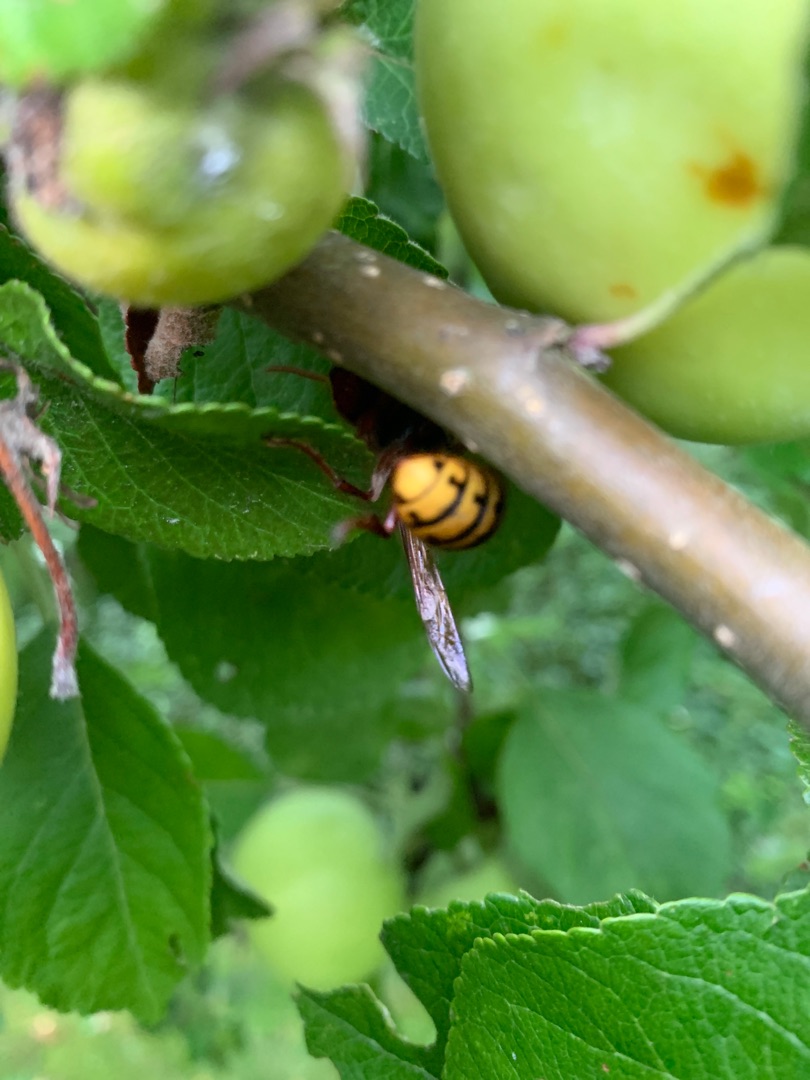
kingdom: Animalia
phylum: Arthropoda
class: Insecta
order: Hymenoptera
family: Vespidae
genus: Vespa
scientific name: Vespa crabro
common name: Stor gedehams
